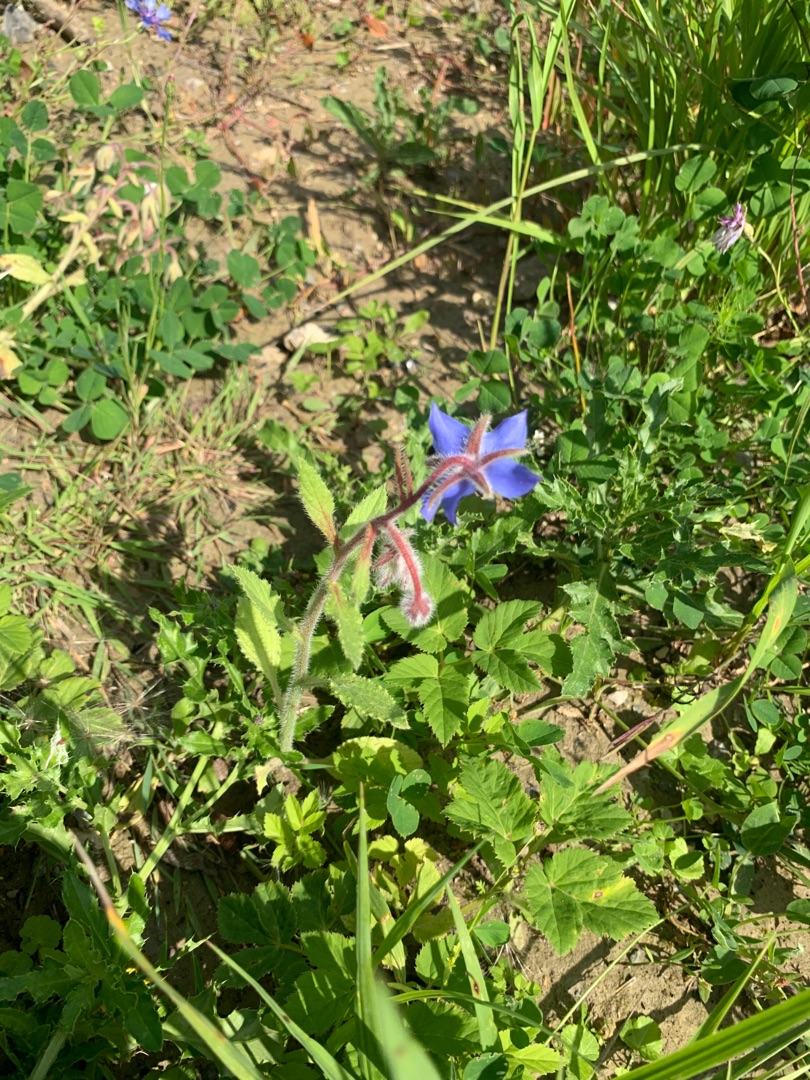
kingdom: Plantae
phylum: Tracheophyta
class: Magnoliopsida
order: Boraginales
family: Boraginaceae
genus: Borago
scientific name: Borago officinalis
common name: Hjulkrone
